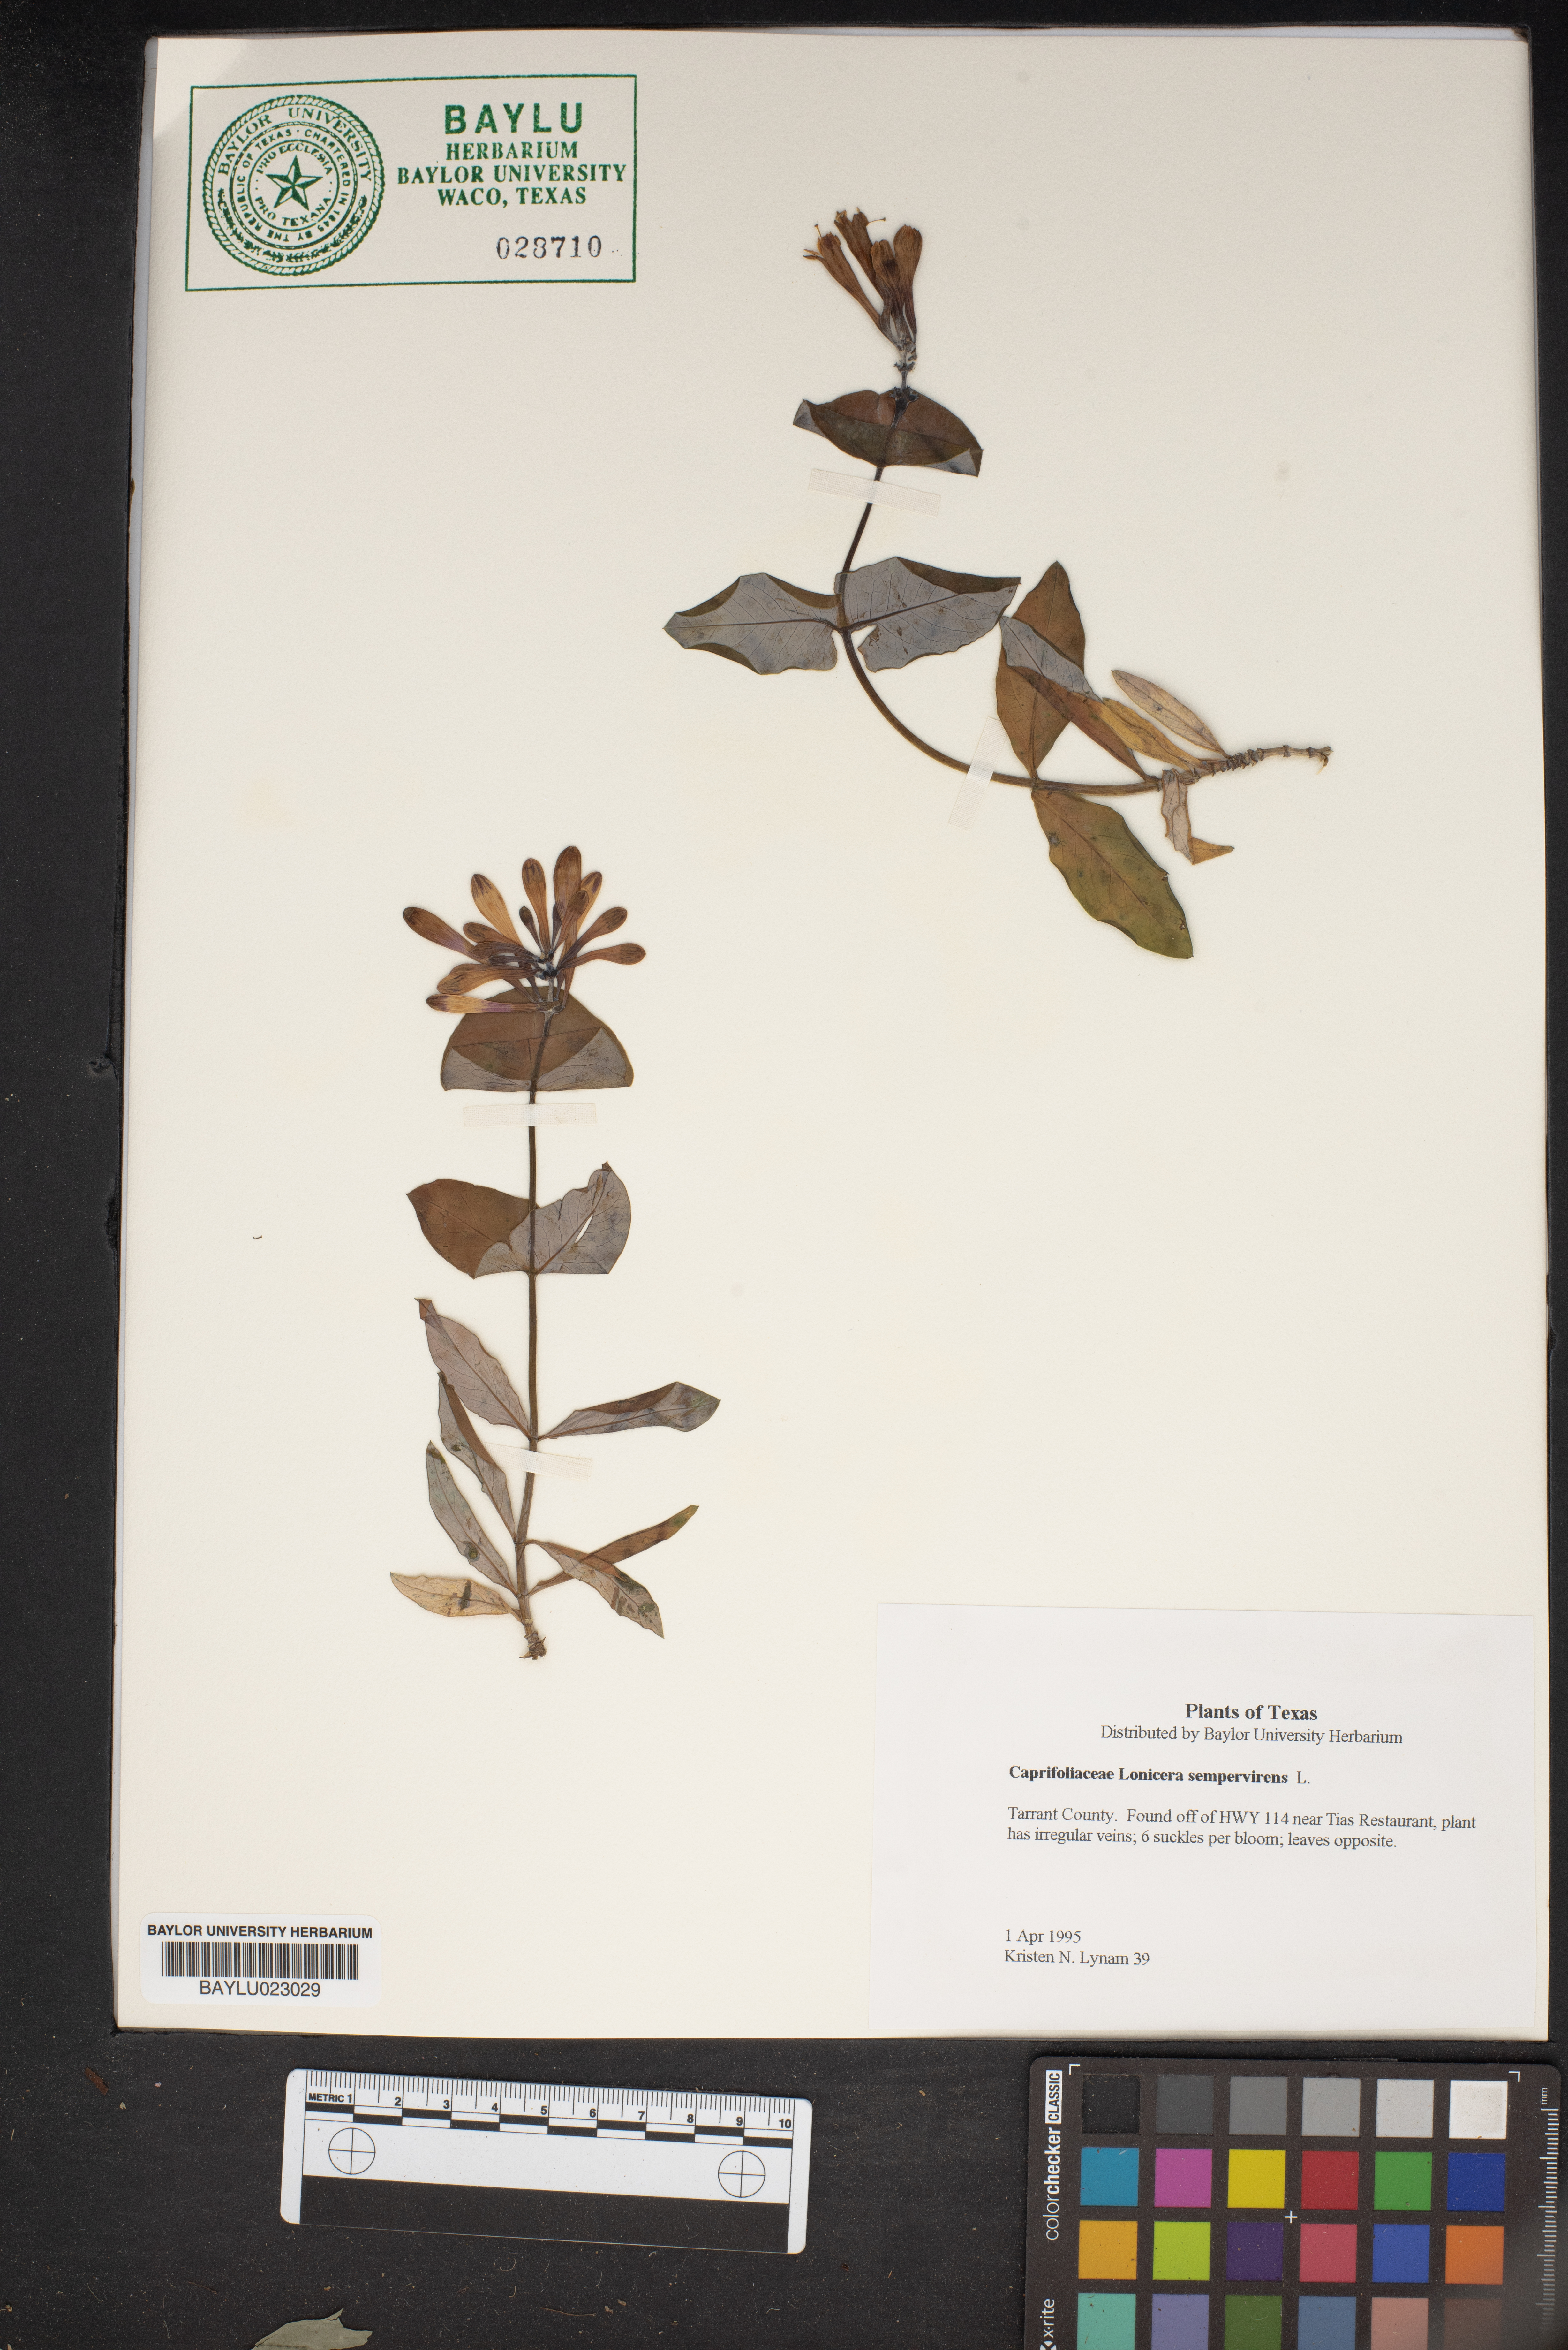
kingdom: Plantae
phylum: Tracheophyta
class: Magnoliopsida
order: Dipsacales
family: Caprifoliaceae
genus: Lonicera
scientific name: Lonicera sempervirens
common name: Coral honeysuckle
